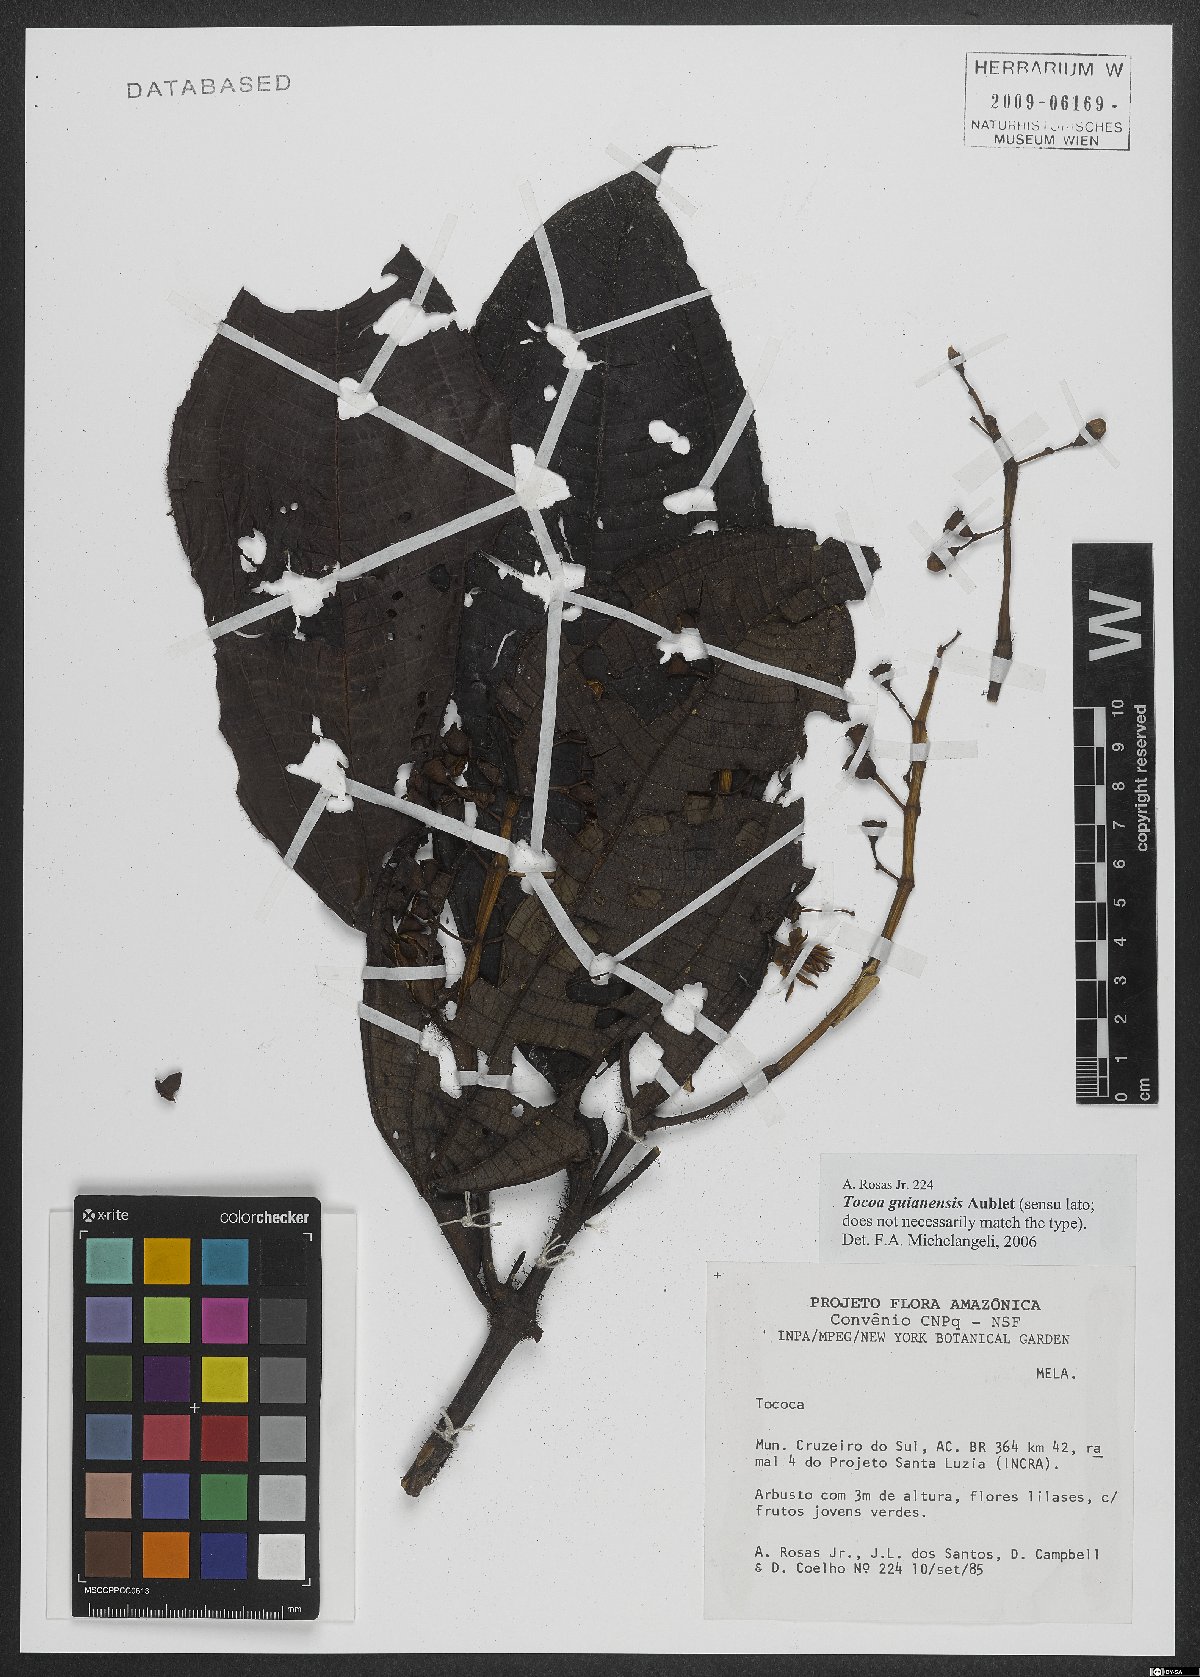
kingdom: Plantae
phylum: Tracheophyta
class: Magnoliopsida
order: Myrtales
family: Melastomataceae
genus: Miconia
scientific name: Miconia tococa
